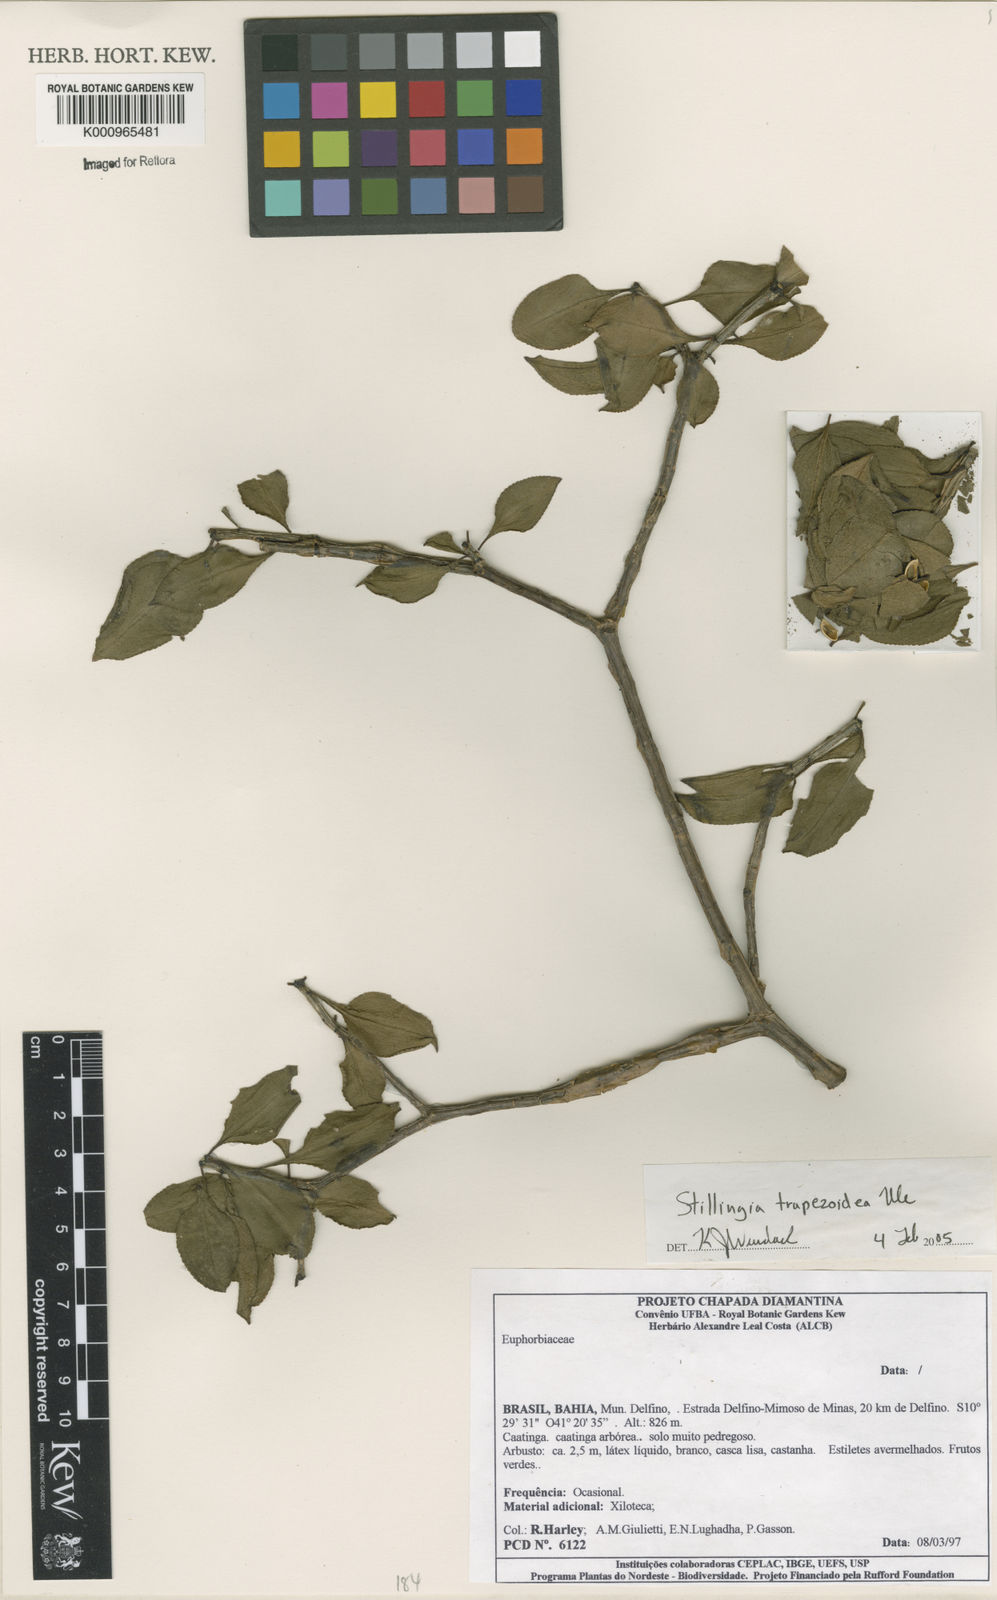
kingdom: Plantae
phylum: Tracheophyta
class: Magnoliopsida
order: Malpighiales
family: Euphorbiaceae
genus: Stillingia
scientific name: Stillingia trapezoidea
